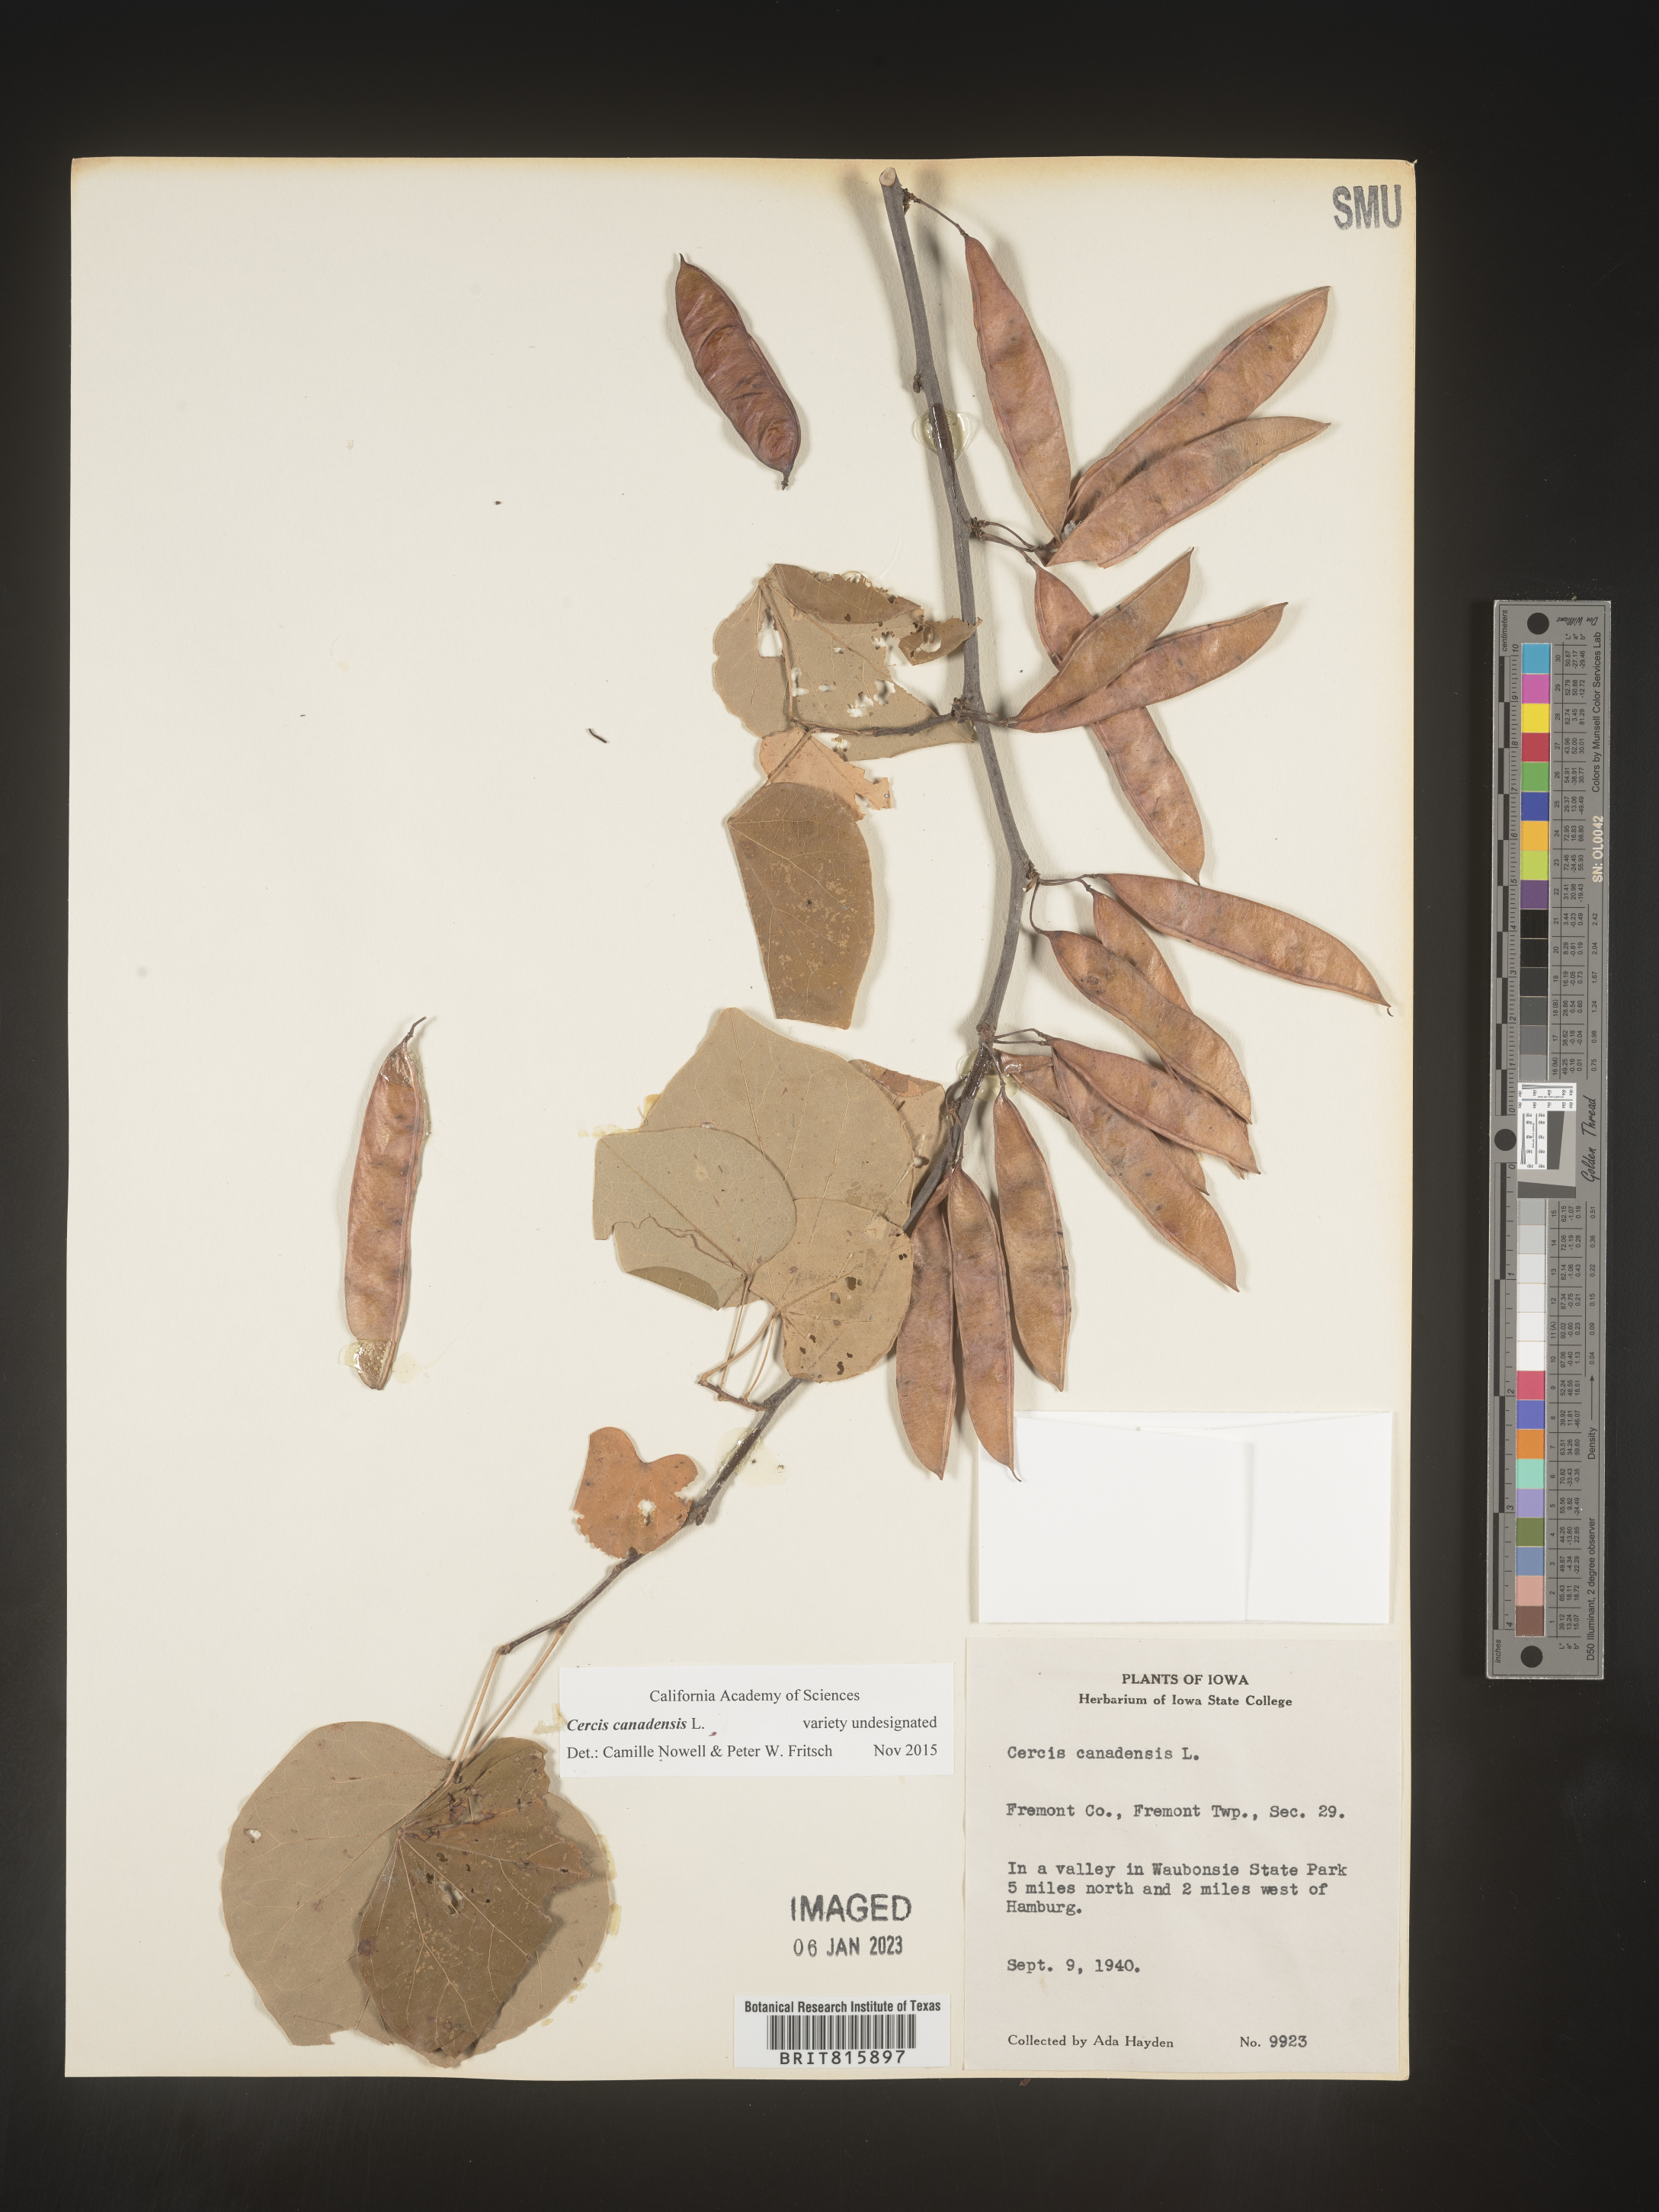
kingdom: Plantae
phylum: Tracheophyta
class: Magnoliopsida
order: Fabales
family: Fabaceae
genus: Cercis
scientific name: Cercis canadensis
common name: Eastern redbud
